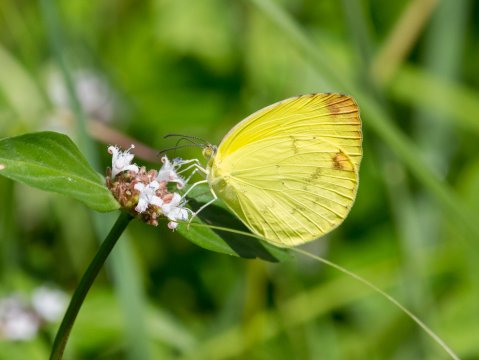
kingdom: Animalia
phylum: Arthropoda
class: Insecta
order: Lepidoptera
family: Pieridae
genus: Pyrisitia
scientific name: Pyrisitia nise
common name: Mimosa Yellow
